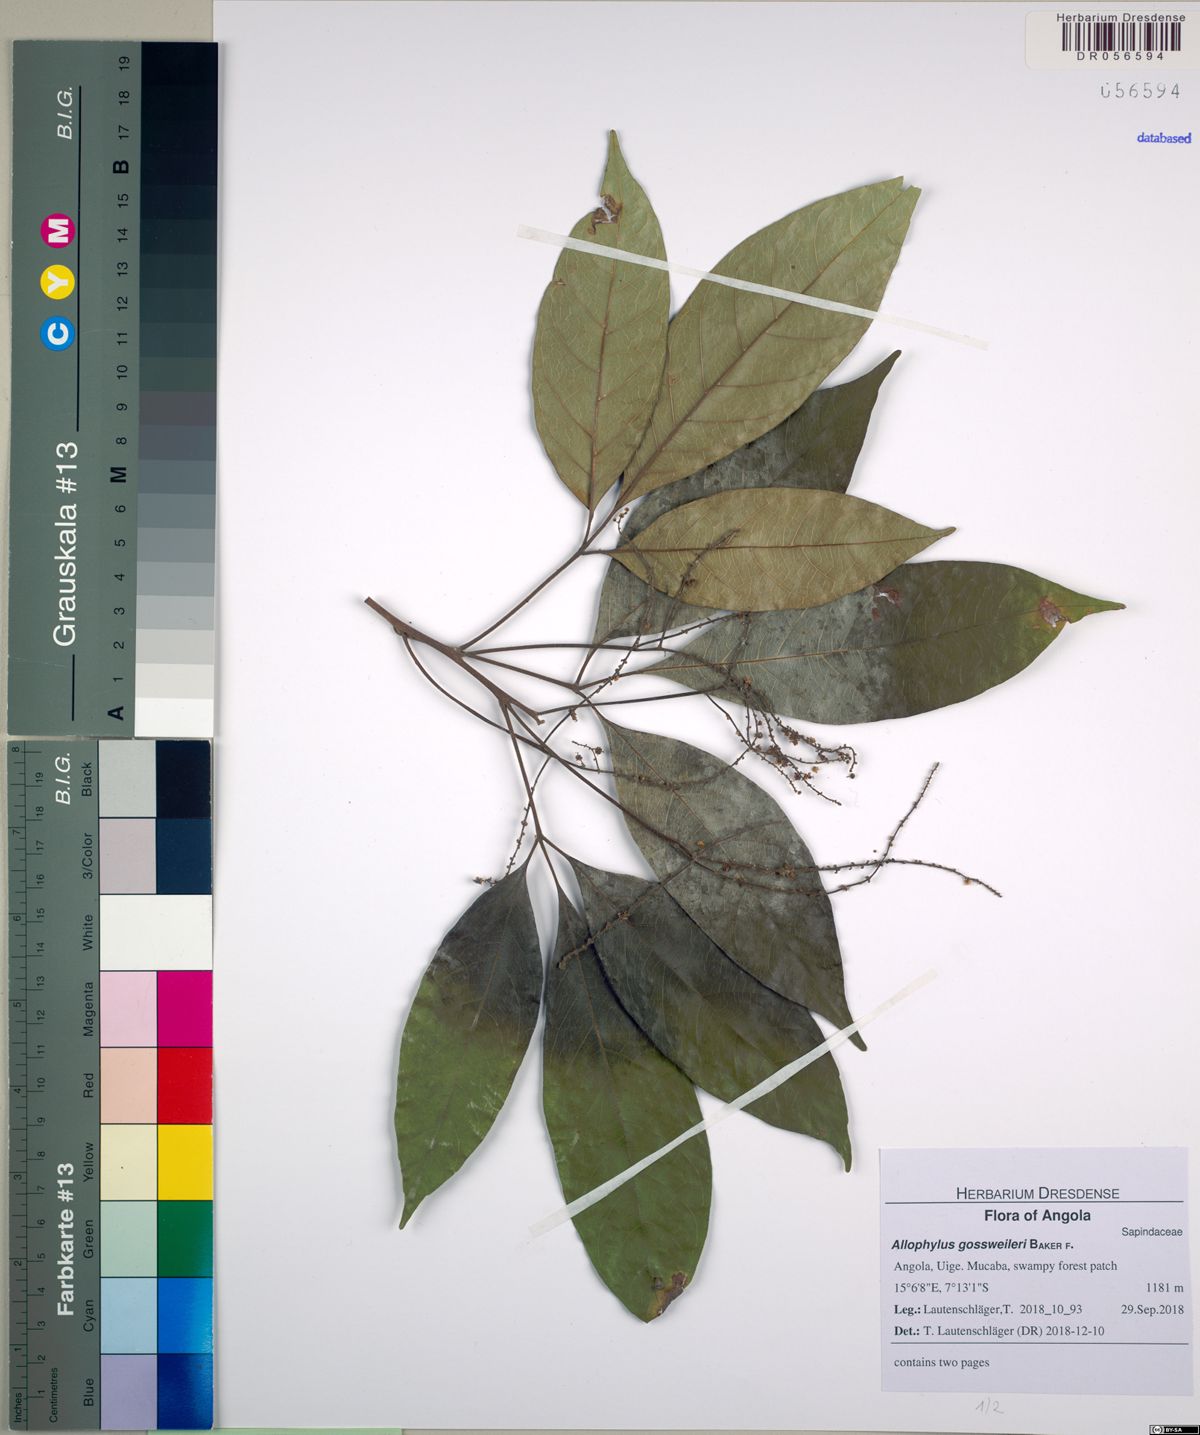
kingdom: Plantae
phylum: Tracheophyta
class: Magnoliopsida
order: Sapindales
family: Sapindaceae
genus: Allophylus
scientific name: Allophylus gossweileri
